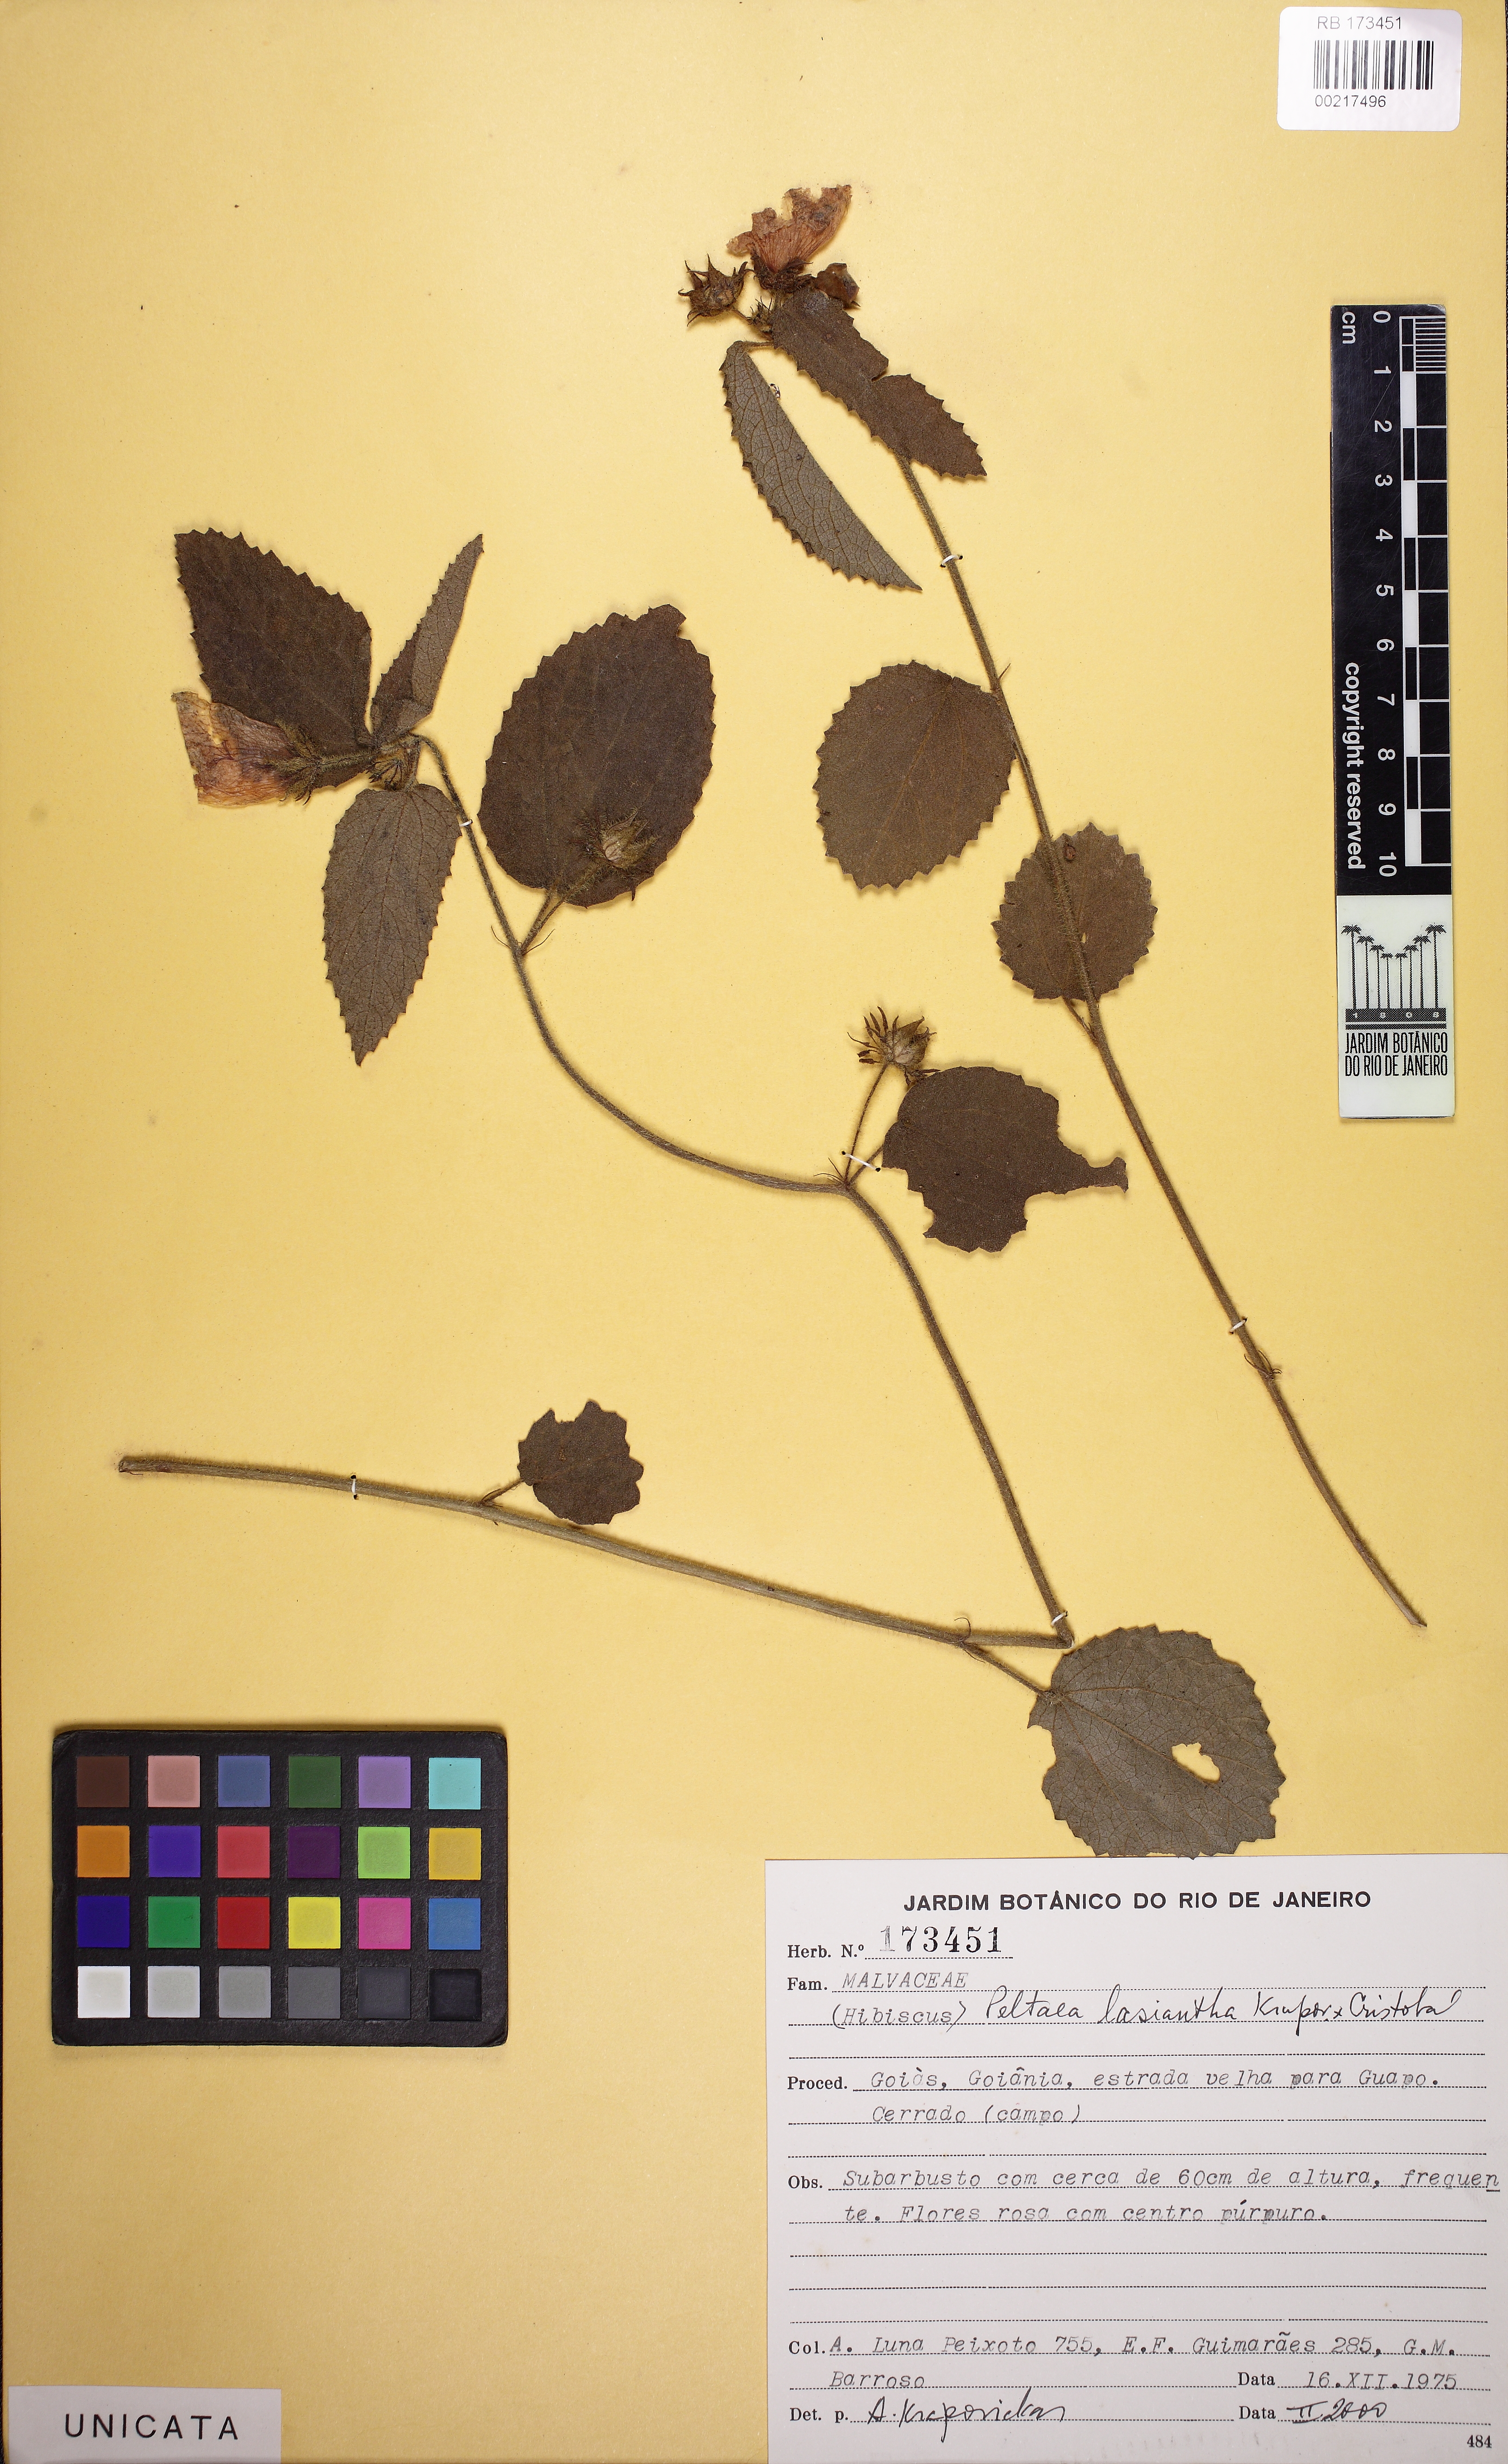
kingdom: Plantae
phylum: Tracheophyta
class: Magnoliopsida
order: Malvales
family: Malvaceae
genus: Peltaea
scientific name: Peltaea lasiantha
